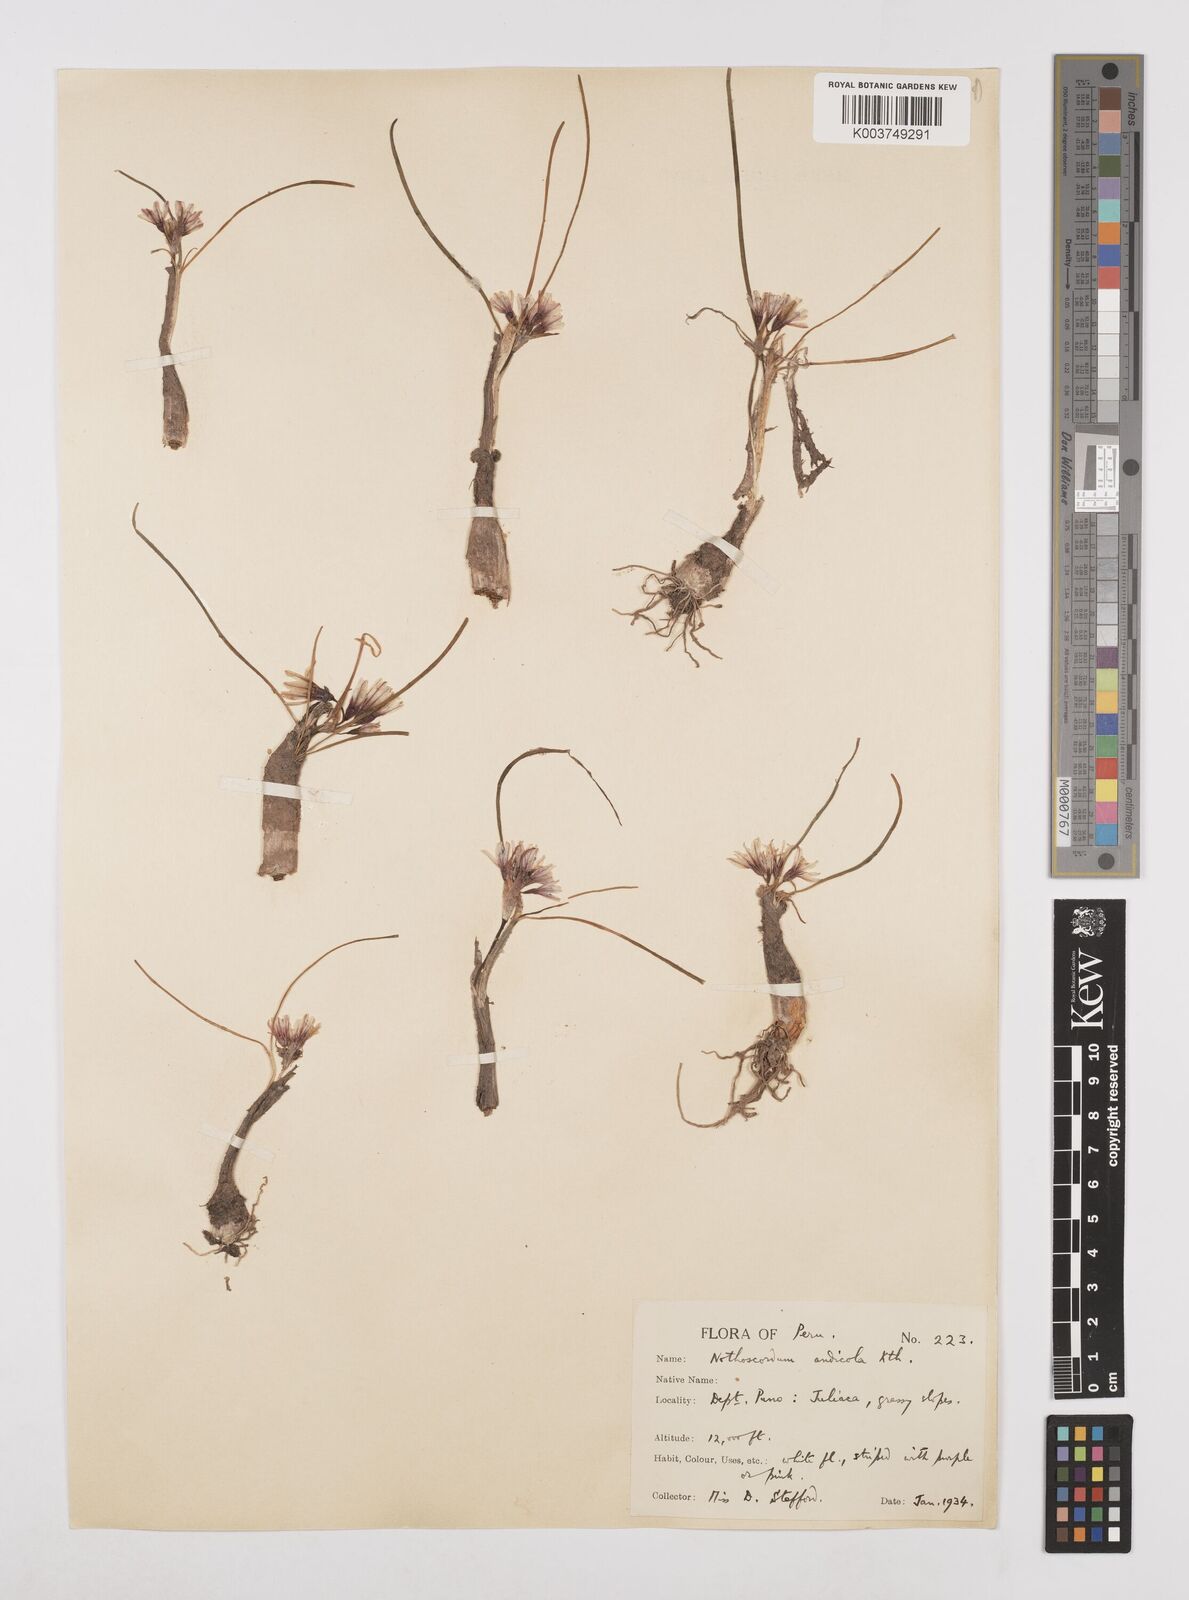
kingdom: Plantae
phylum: Tracheophyta
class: Liliopsida
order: Asparagales
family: Amaryllidaceae
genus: Nothoscordum
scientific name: Nothoscordum andicola
